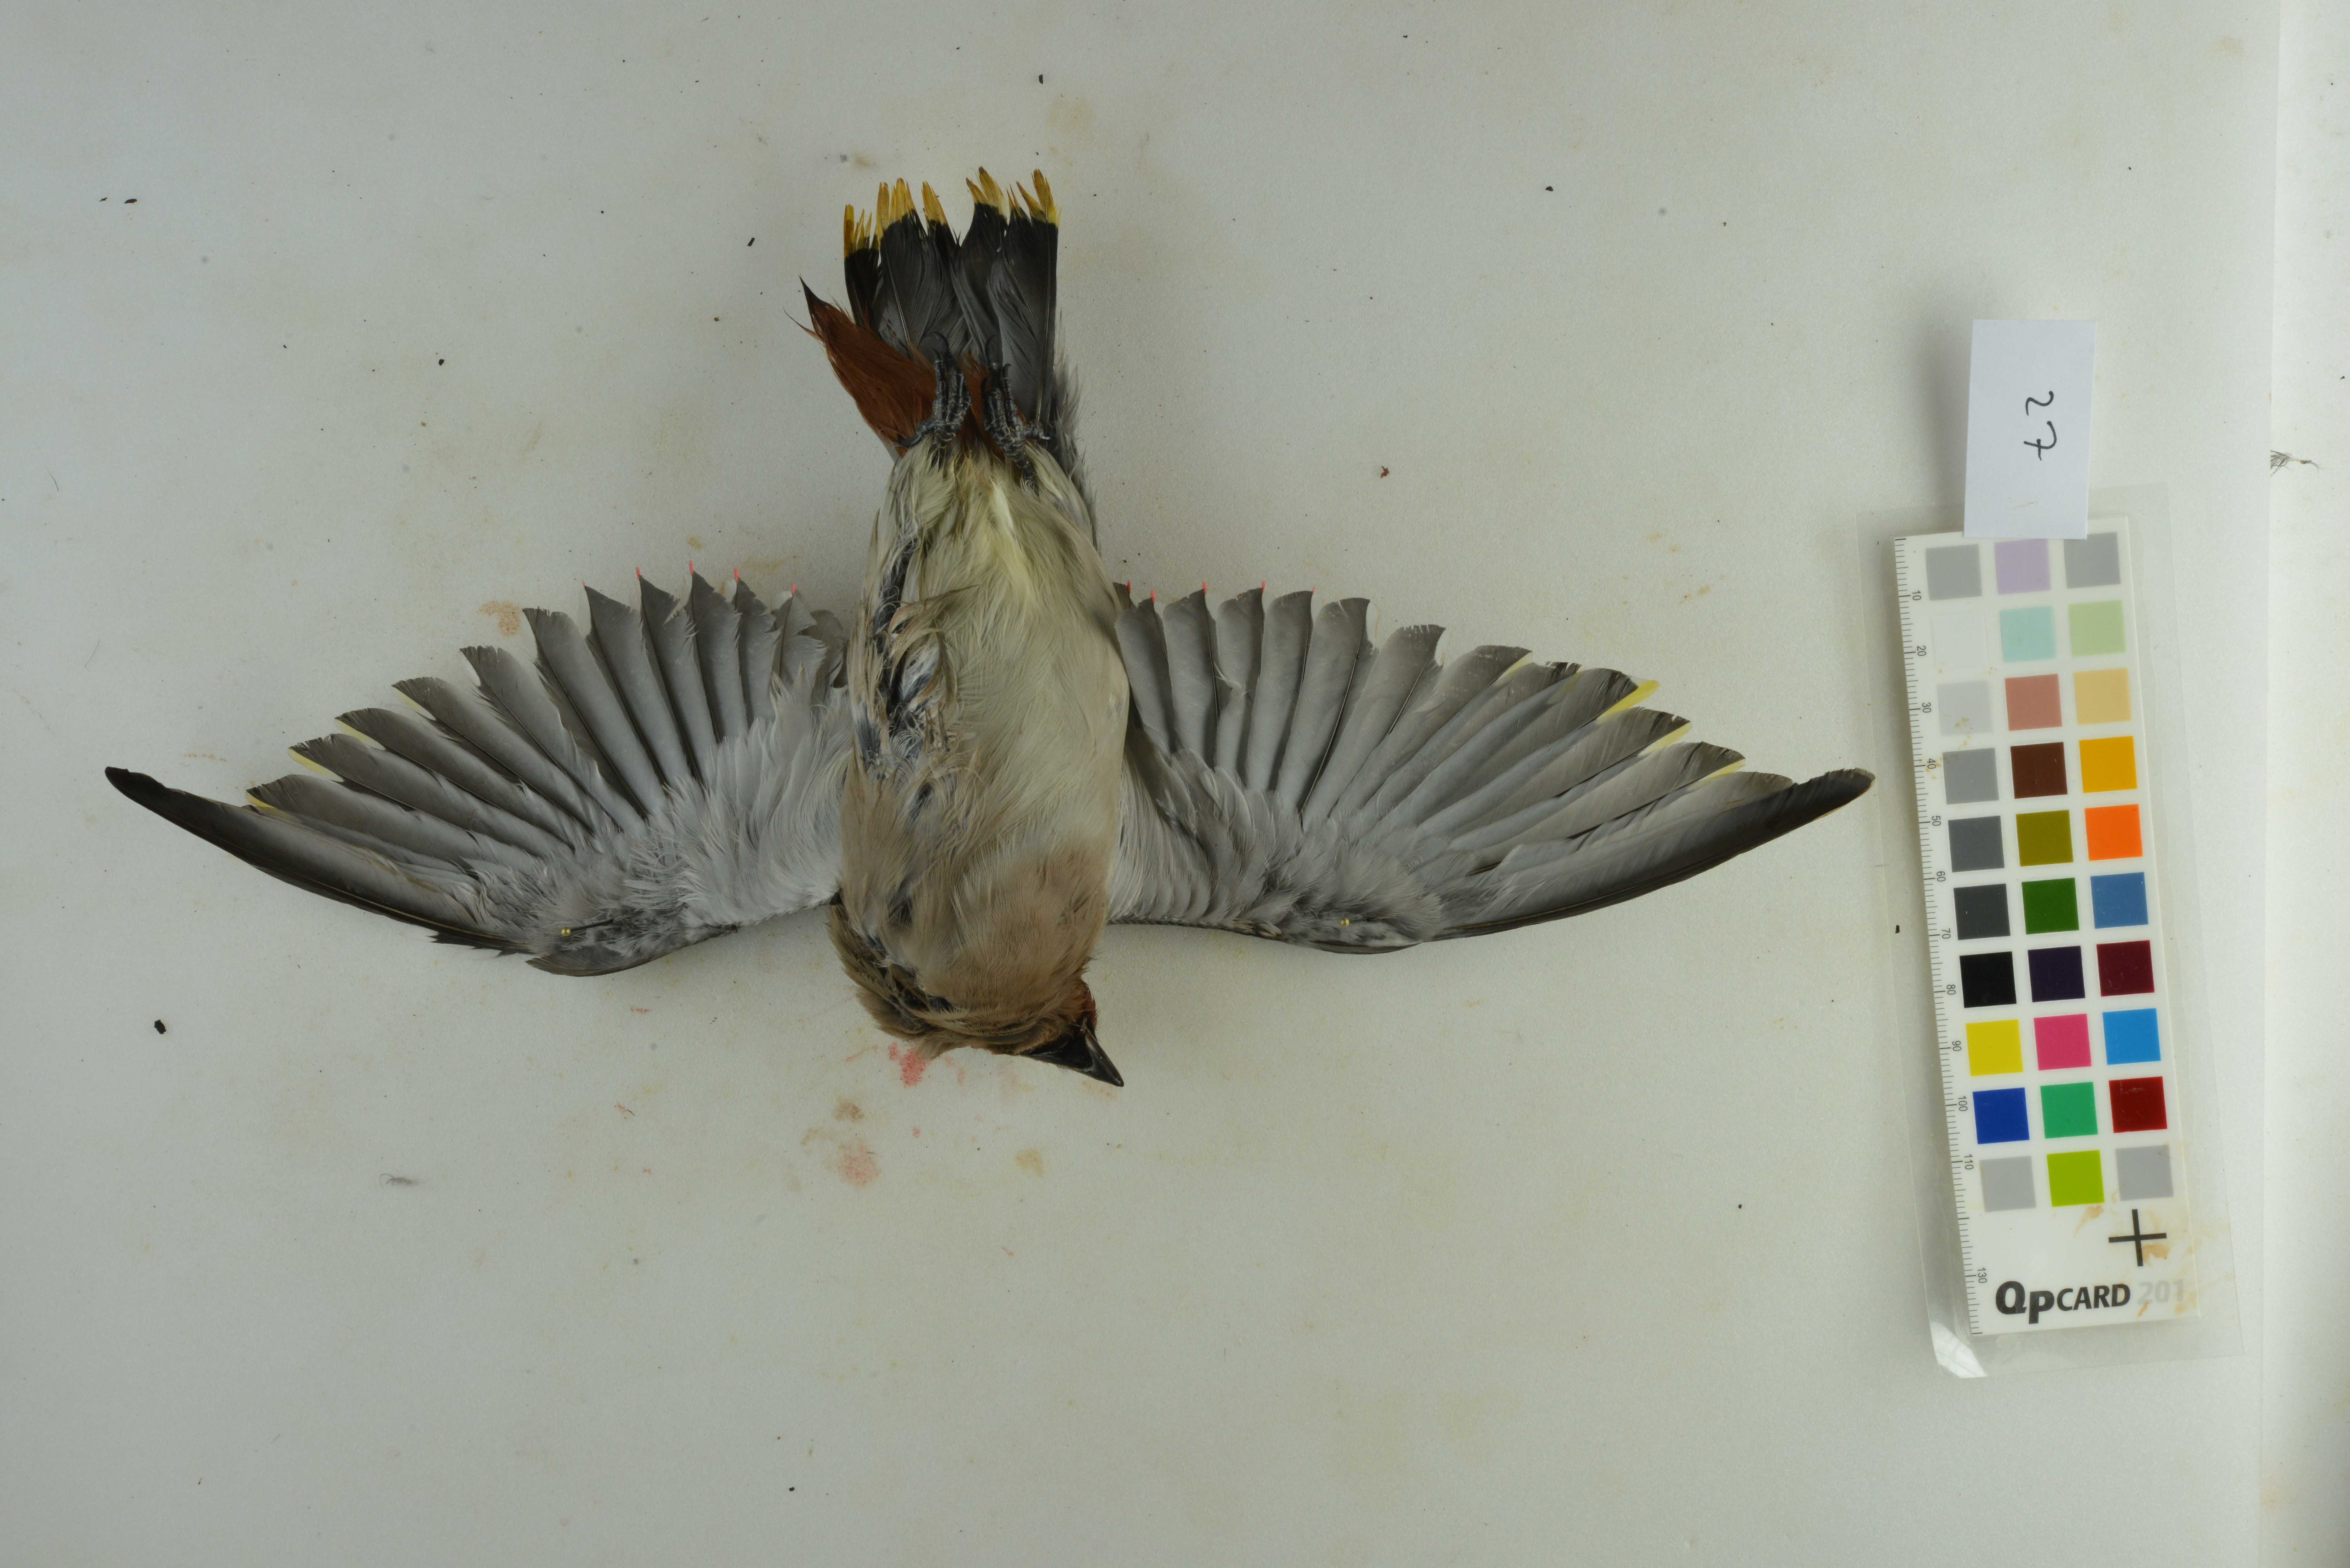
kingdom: Animalia
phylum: Chordata
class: Aves
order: Passeriformes
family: Bombycillidae
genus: Bombycilla
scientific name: Bombycilla garrulus
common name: Bohemian waxwing
